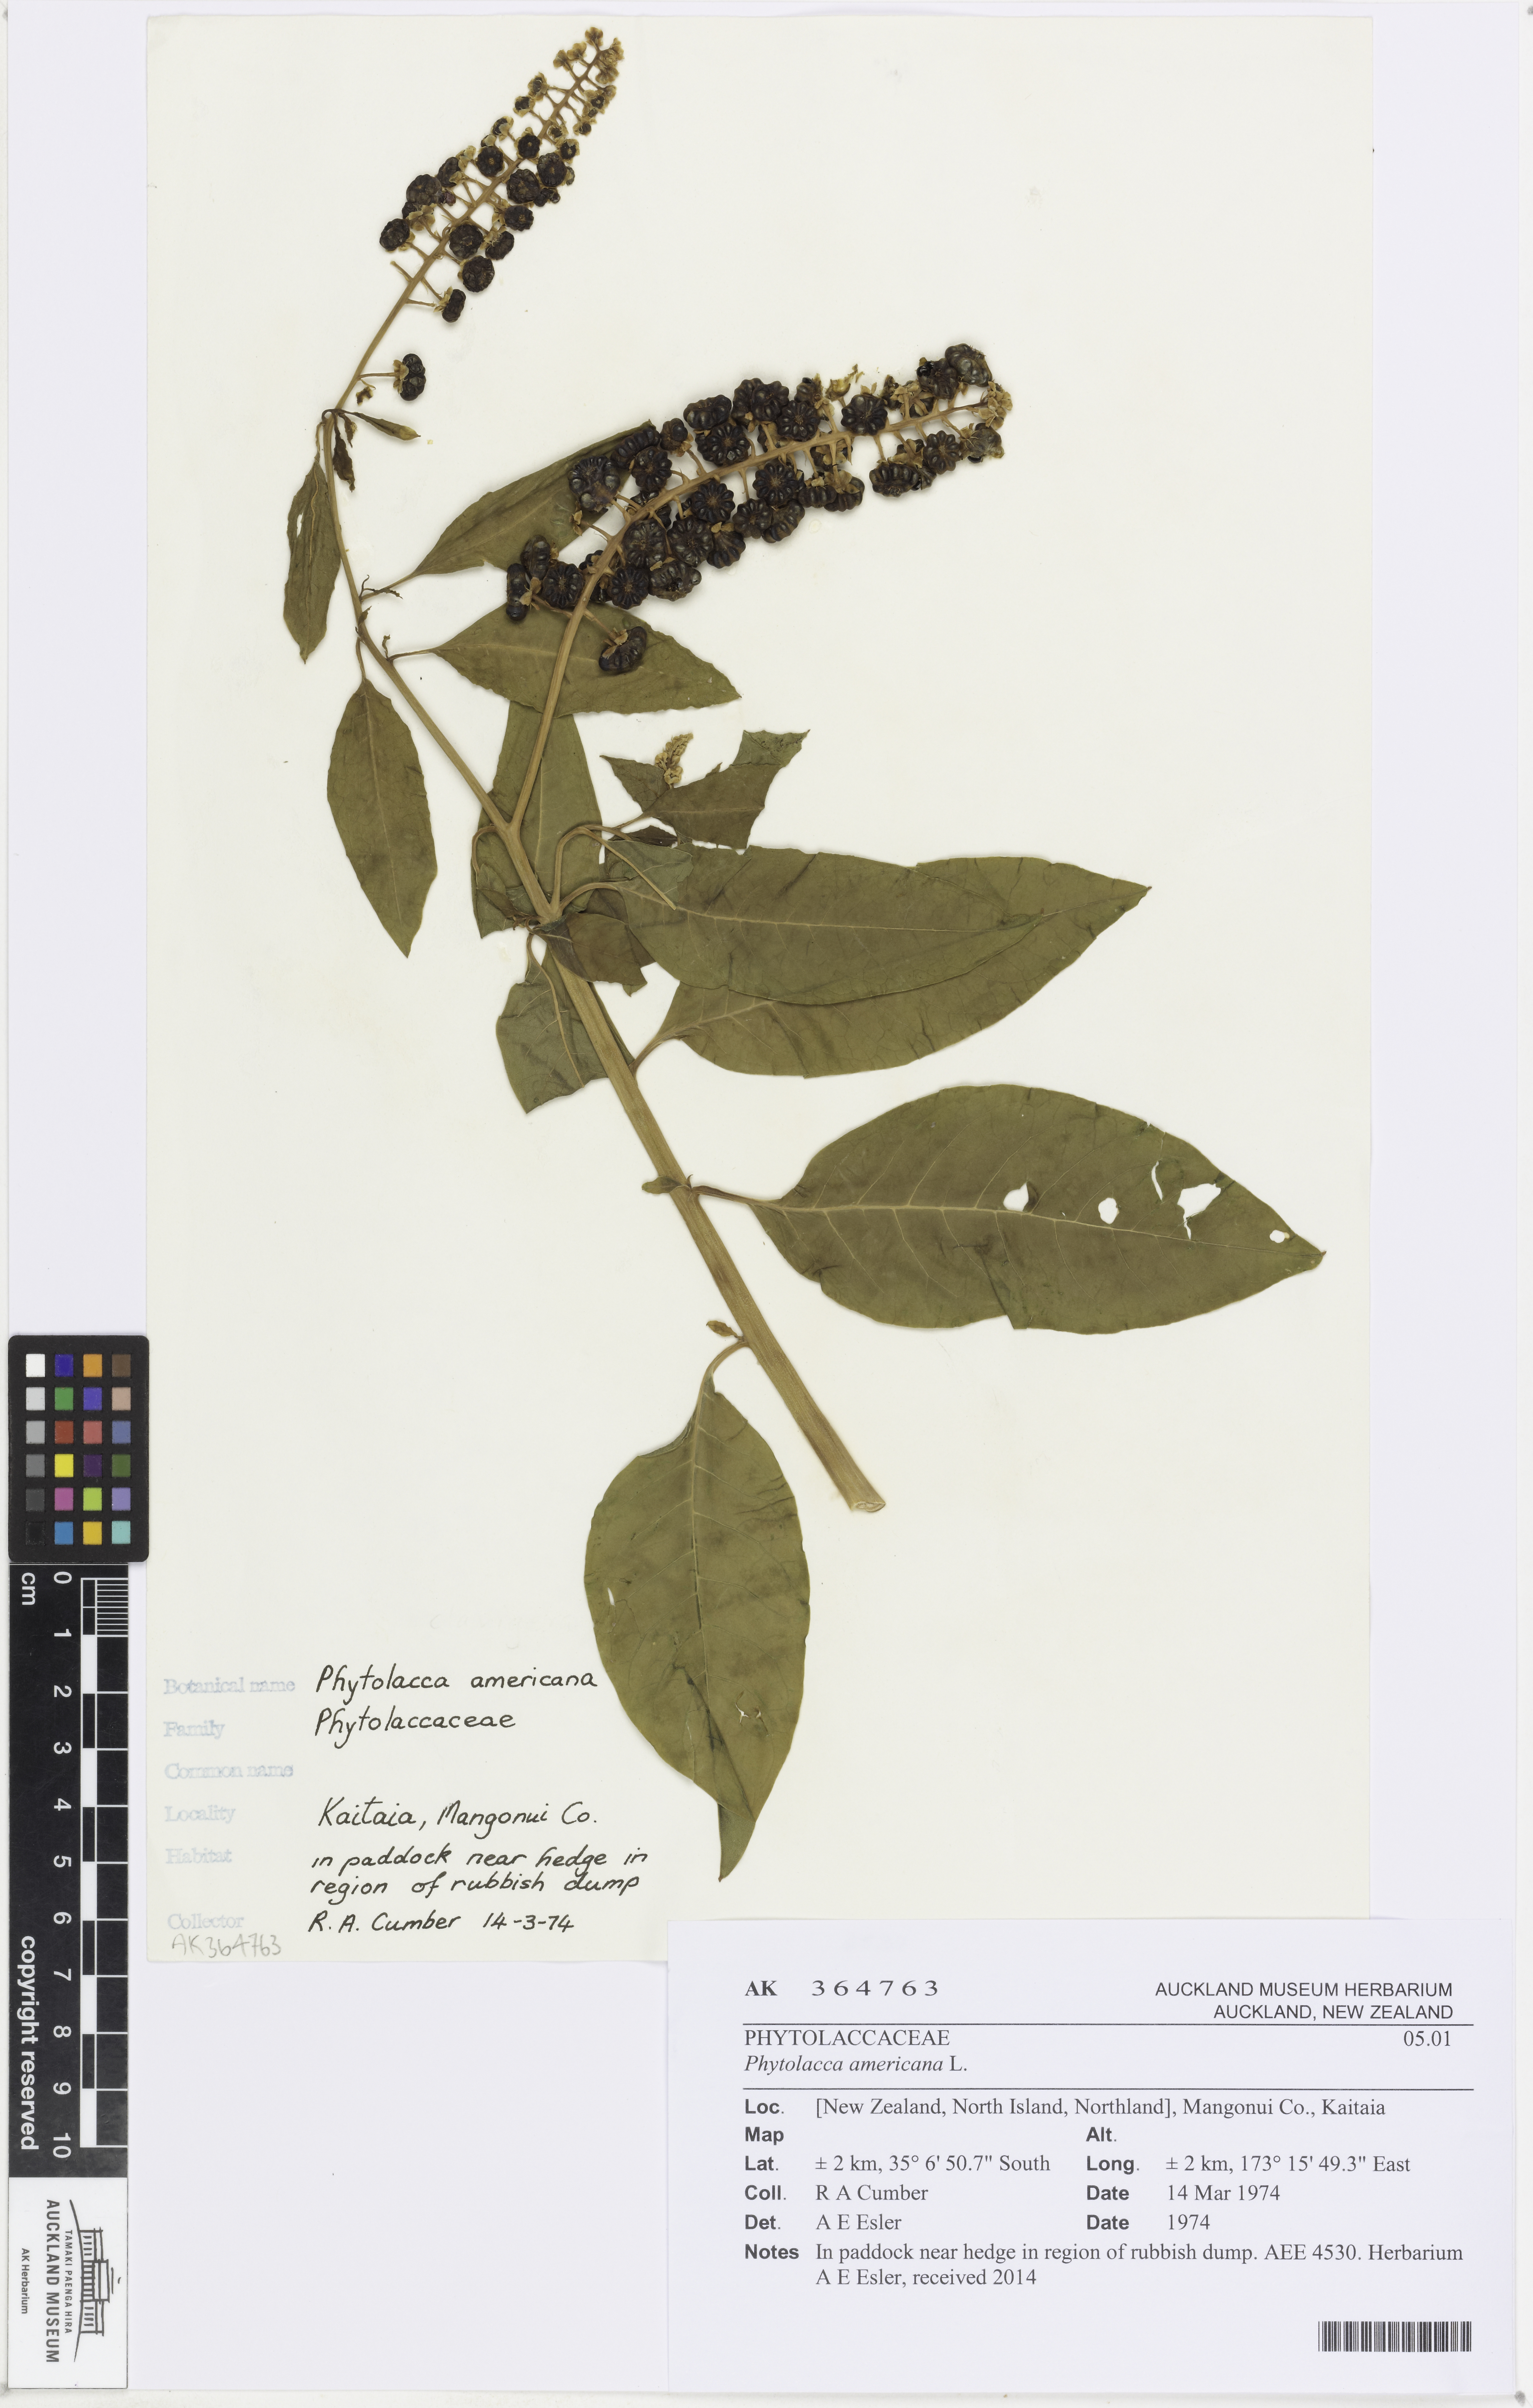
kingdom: Plantae
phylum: Tracheophyta
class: Magnoliopsida
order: Caryophyllales
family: Phytolaccaceae
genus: Phytolacca
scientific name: Phytolacca americana
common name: American pokeweed
